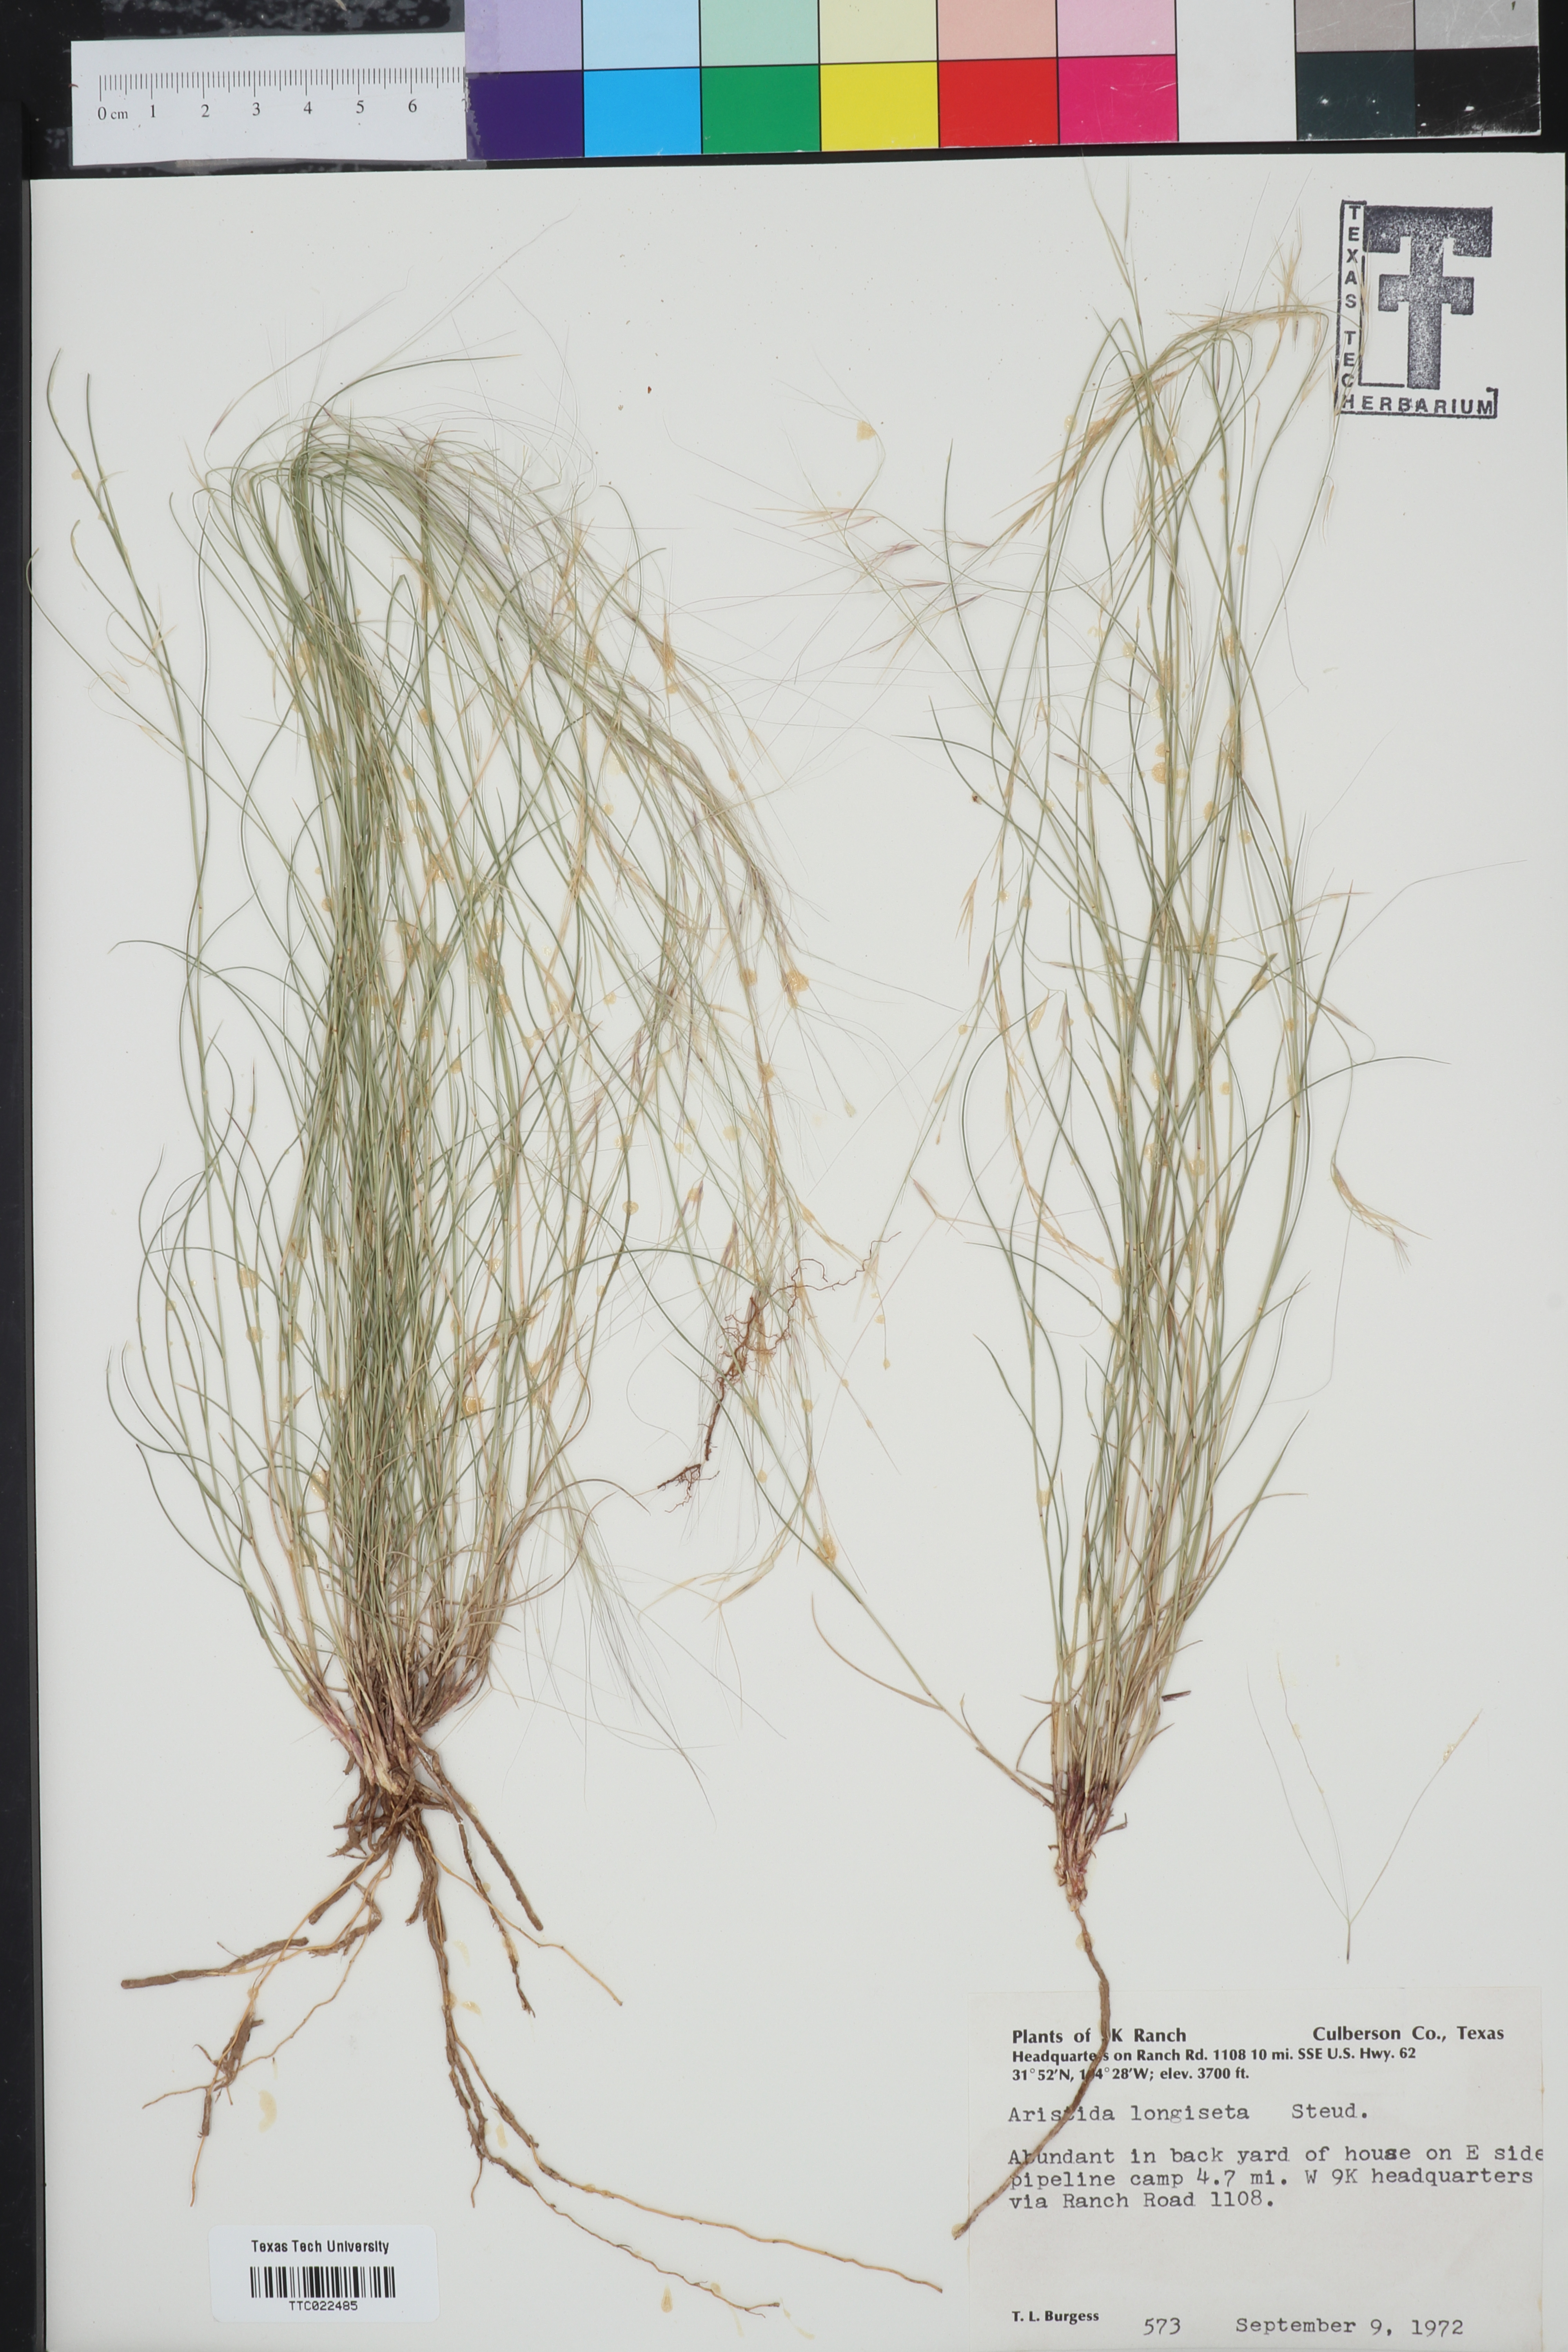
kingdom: Plantae
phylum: Tracheophyta
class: Liliopsida
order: Poales
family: Poaceae
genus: Aristida
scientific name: Aristida longiseta
